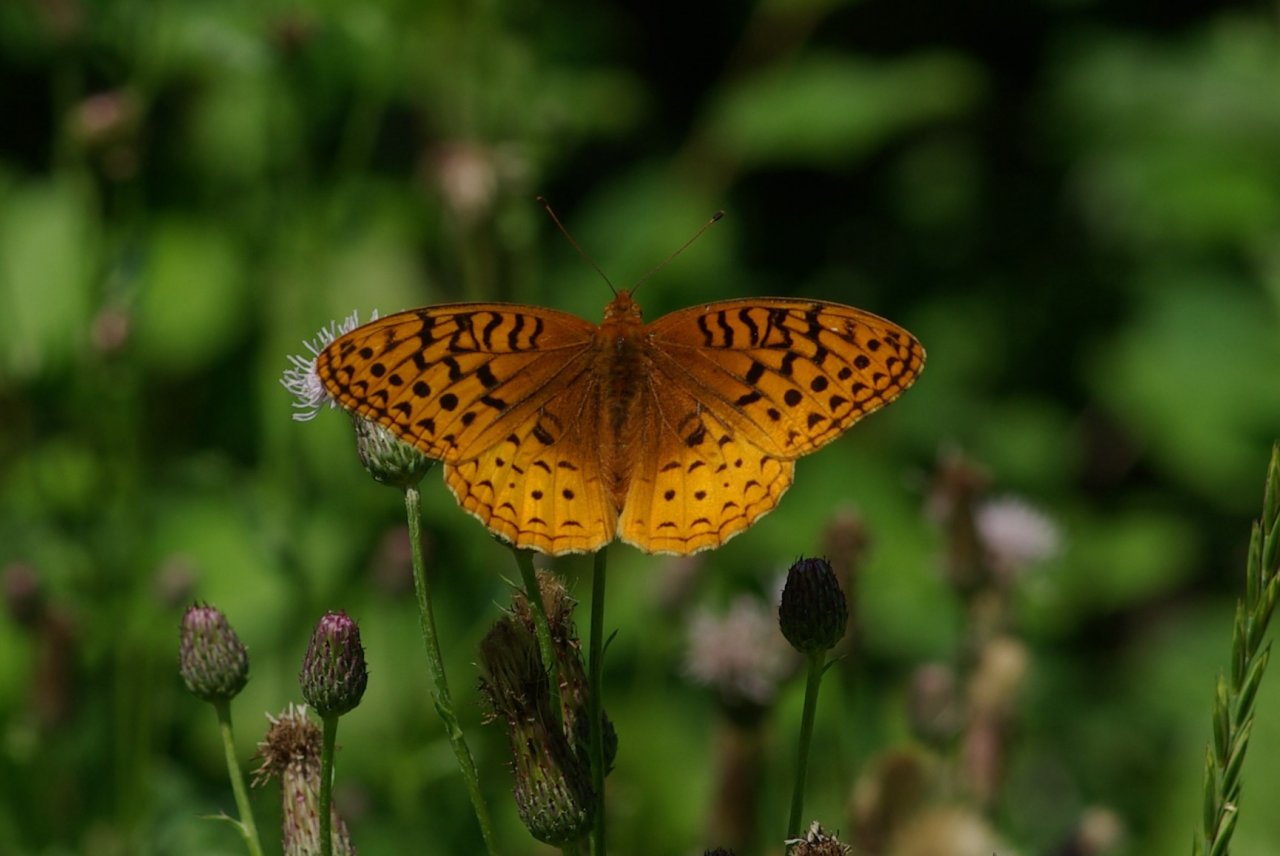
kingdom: Animalia
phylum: Arthropoda
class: Insecta
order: Lepidoptera
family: Nymphalidae
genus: Speyeria
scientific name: Speyeria cybele
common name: Great Spangled Fritillary
